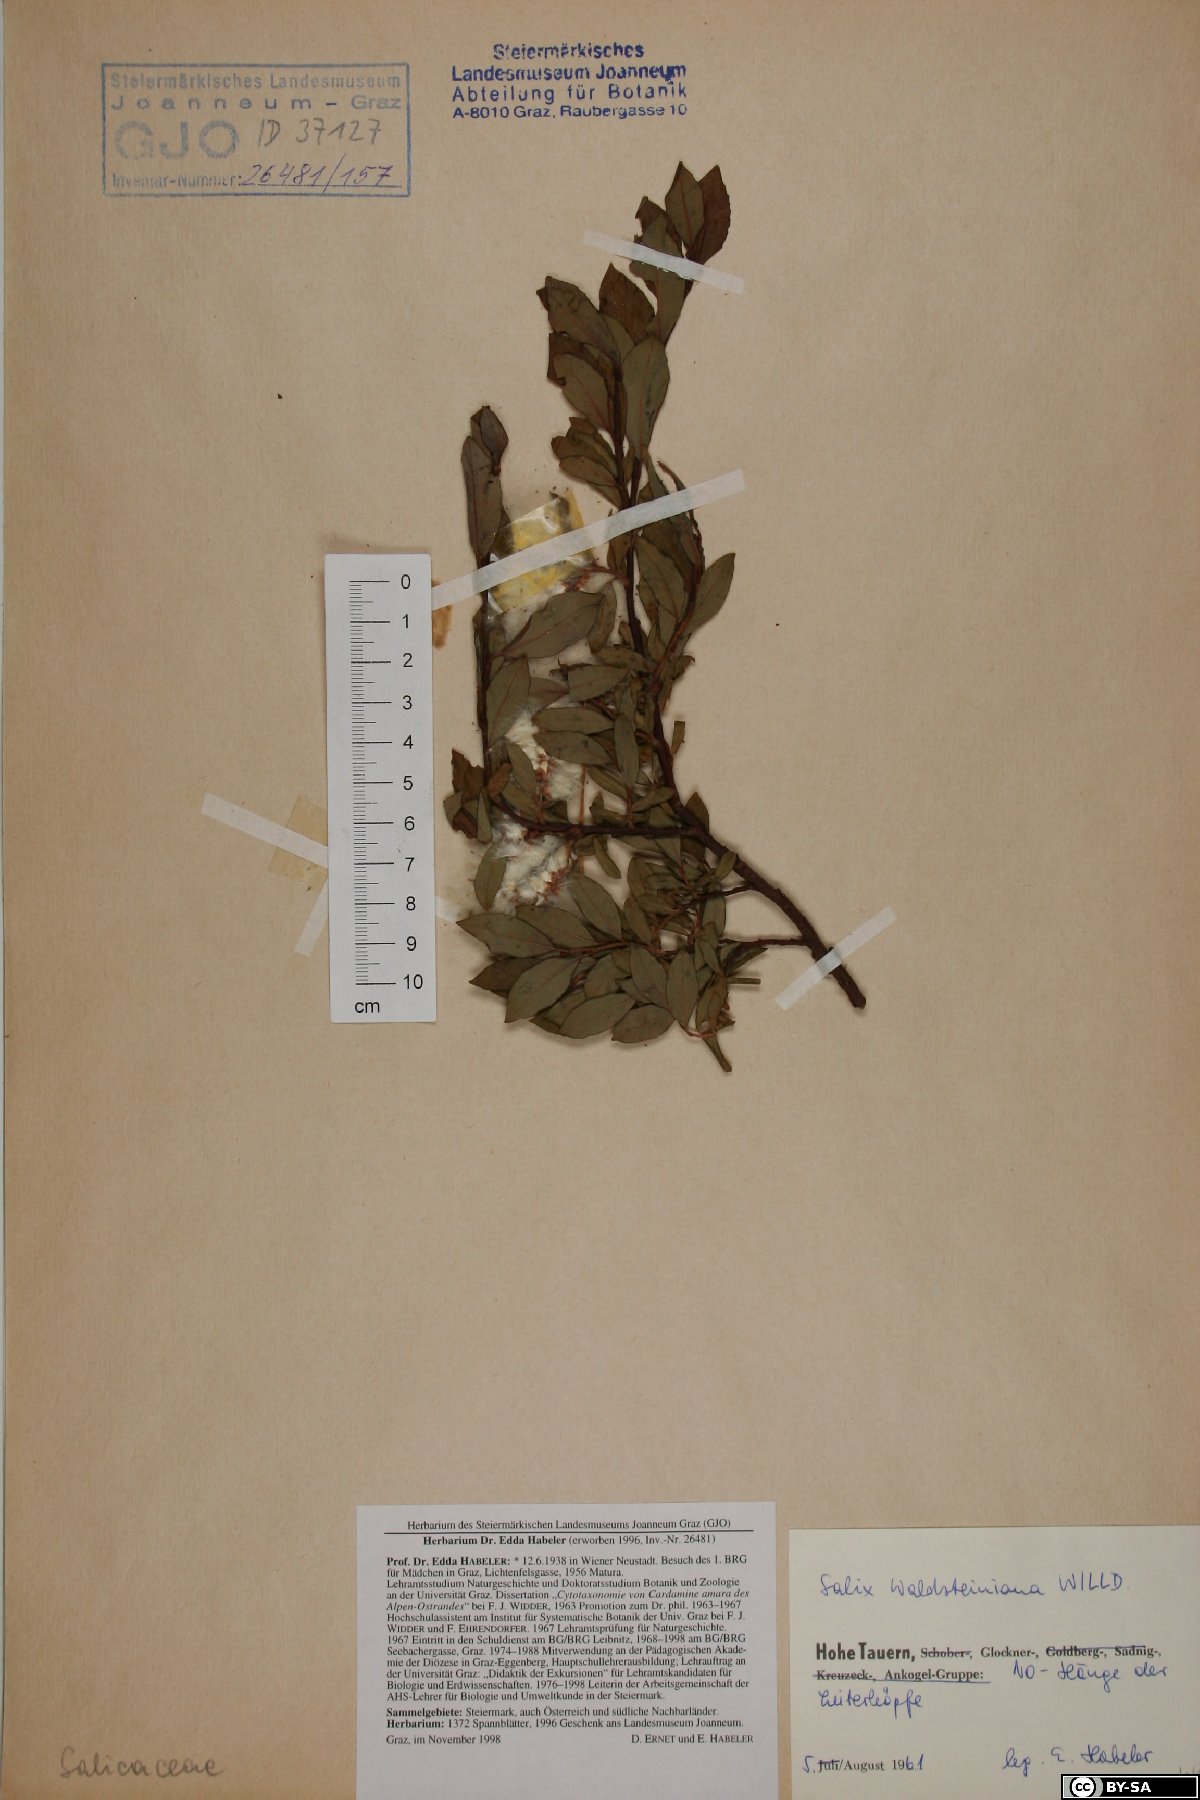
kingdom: Plantae
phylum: Tracheophyta
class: Magnoliopsida
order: Malpighiales
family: Salicaceae
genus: Salix
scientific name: Salix waldsteiniana
